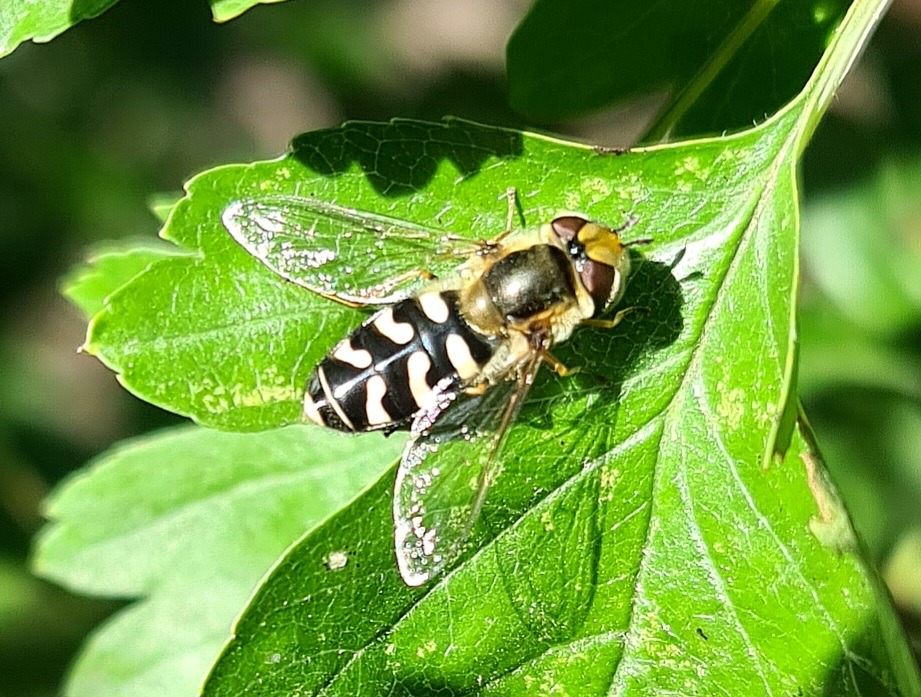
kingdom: Animalia
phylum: Arthropoda
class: Insecta
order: Diptera
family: Syrphidae
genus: Scaeva
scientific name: Scaeva pyrastri
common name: Hvidplettet agersvirreflue
